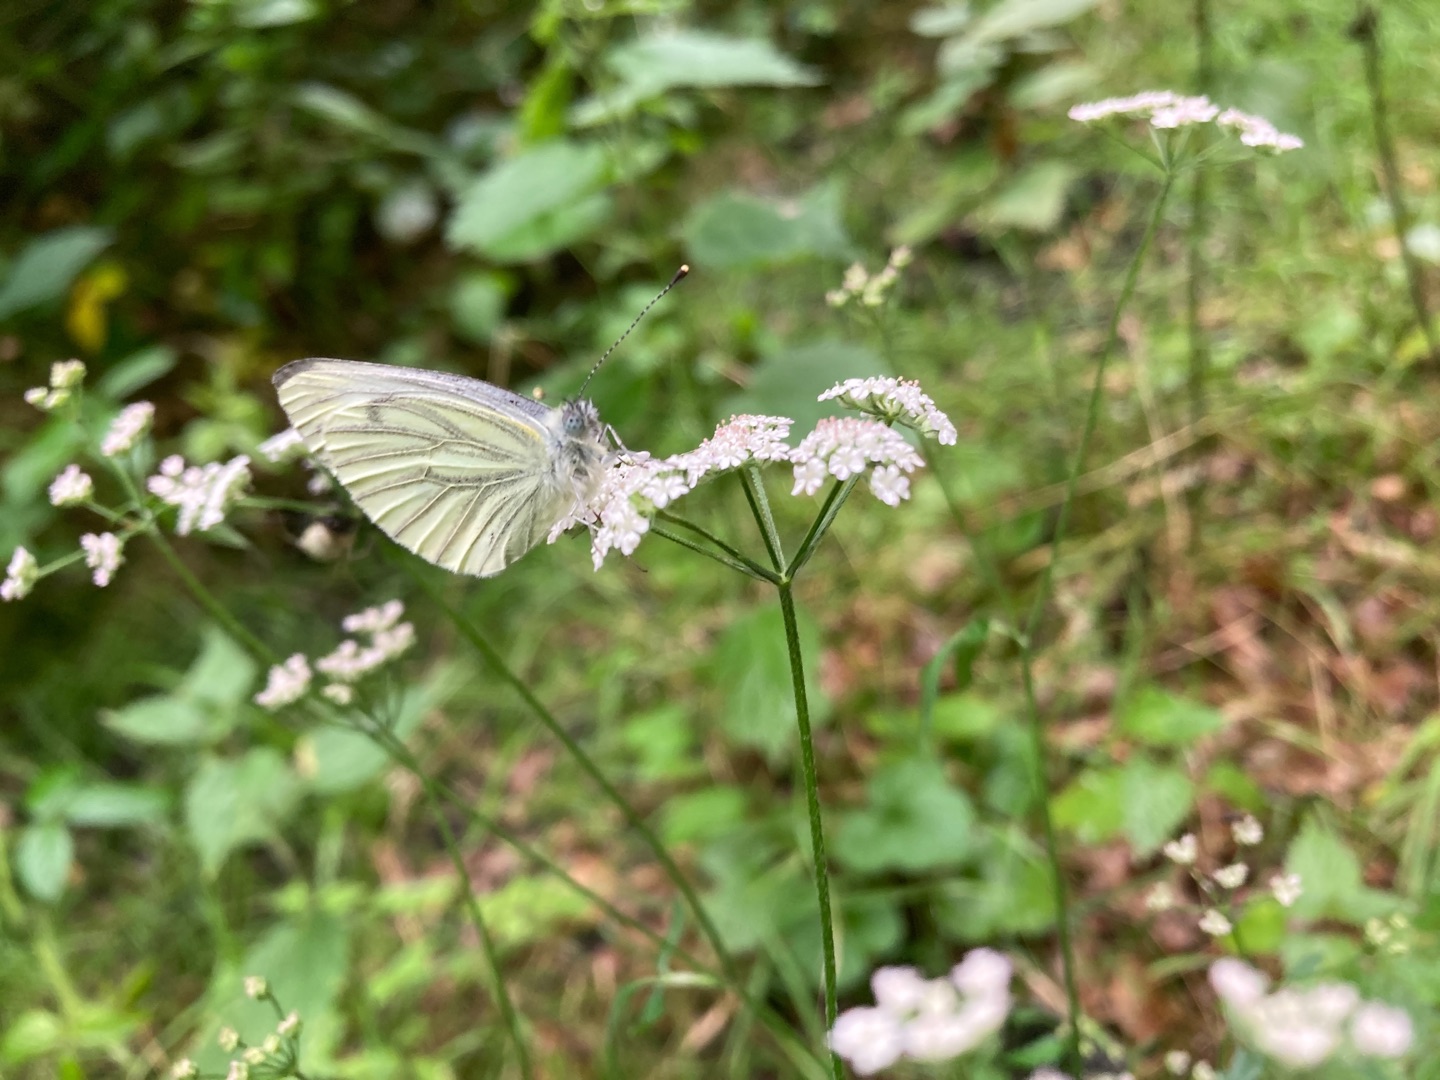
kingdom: Animalia
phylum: Arthropoda
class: Insecta
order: Lepidoptera
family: Pieridae
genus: Pieris
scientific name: Pieris napi
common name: Grønåret kålsommerfugl
